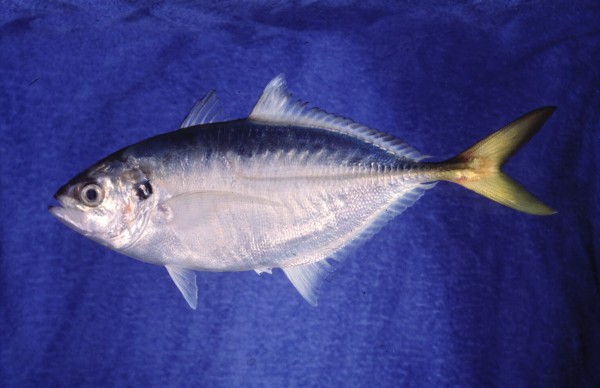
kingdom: Animalia
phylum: Chordata
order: Perciformes
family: Carangidae
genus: Alepes
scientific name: Alepes djedaba
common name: Shrimp scad
